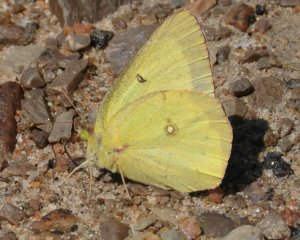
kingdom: Animalia
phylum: Arthropoda
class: Insecta
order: Lepidoptera
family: Pieridae
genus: Colias
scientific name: Colias philodice
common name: Clouded Sulphur
